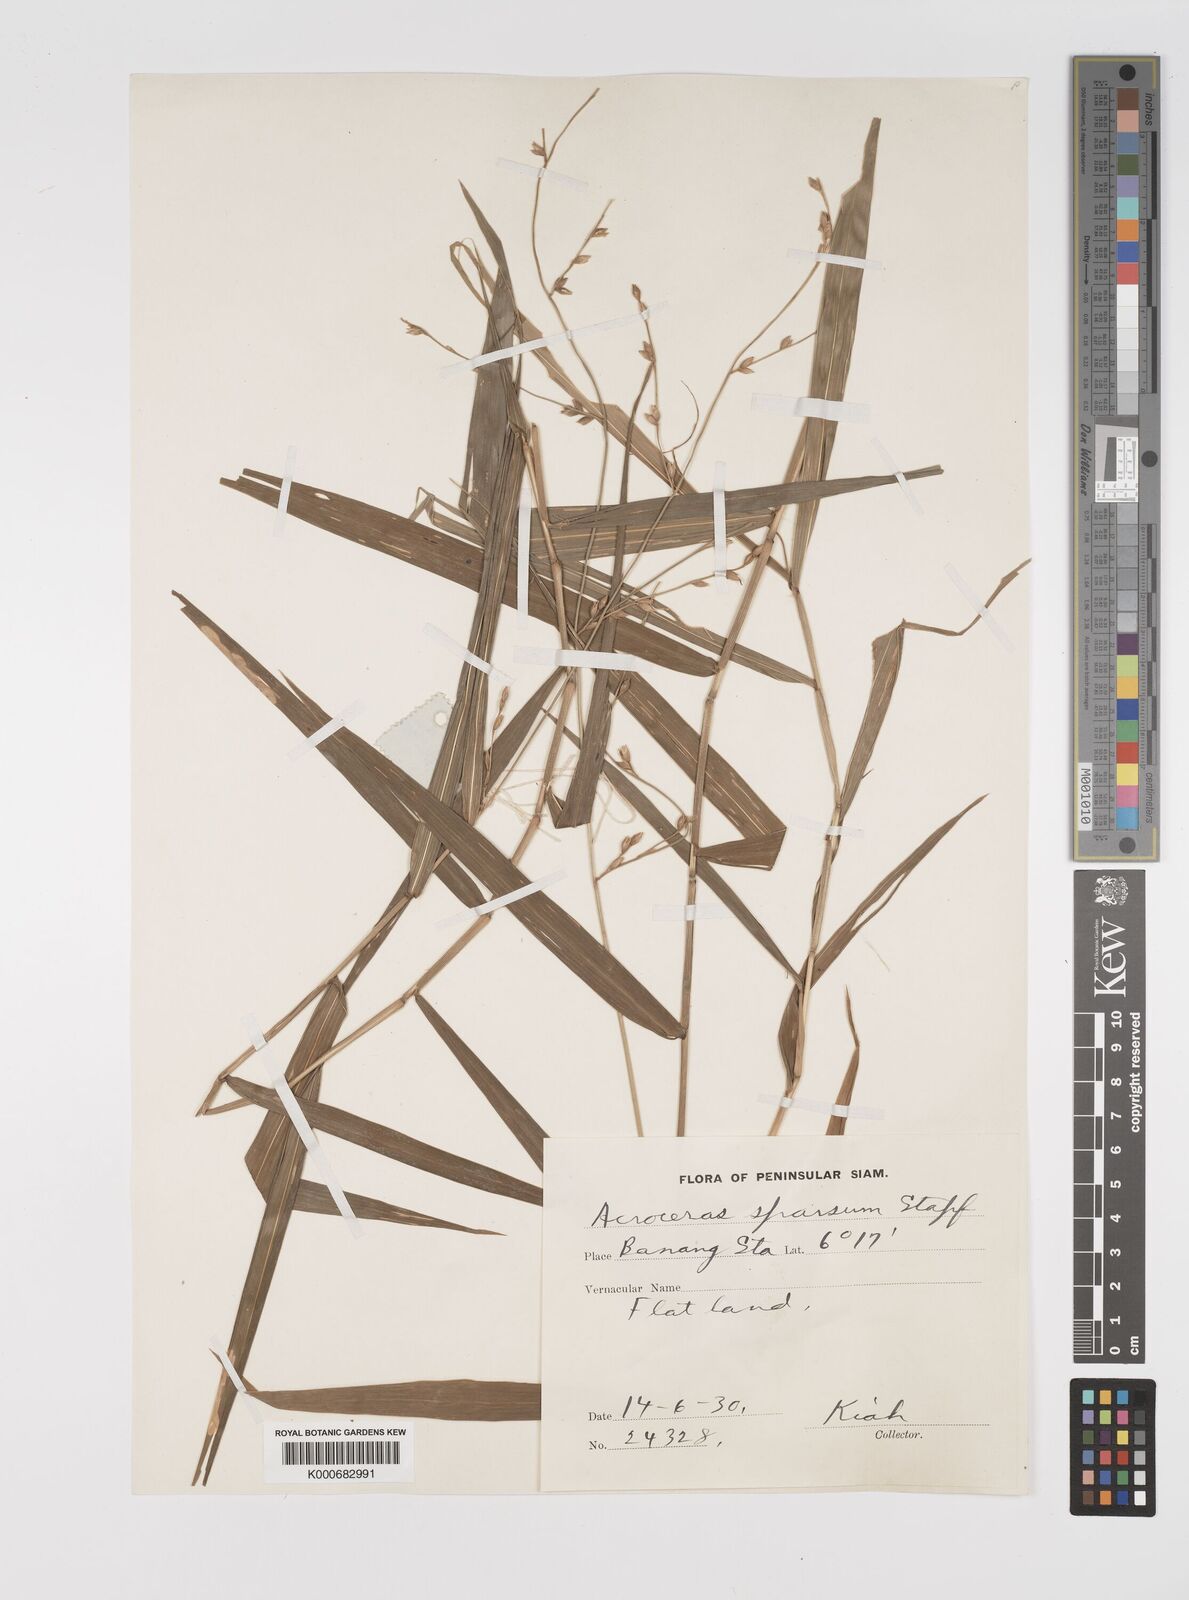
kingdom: Plantae
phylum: Tracheophyta
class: Liliopsida
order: Poales
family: Poaceae
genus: Acroceras
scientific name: Acroceras
